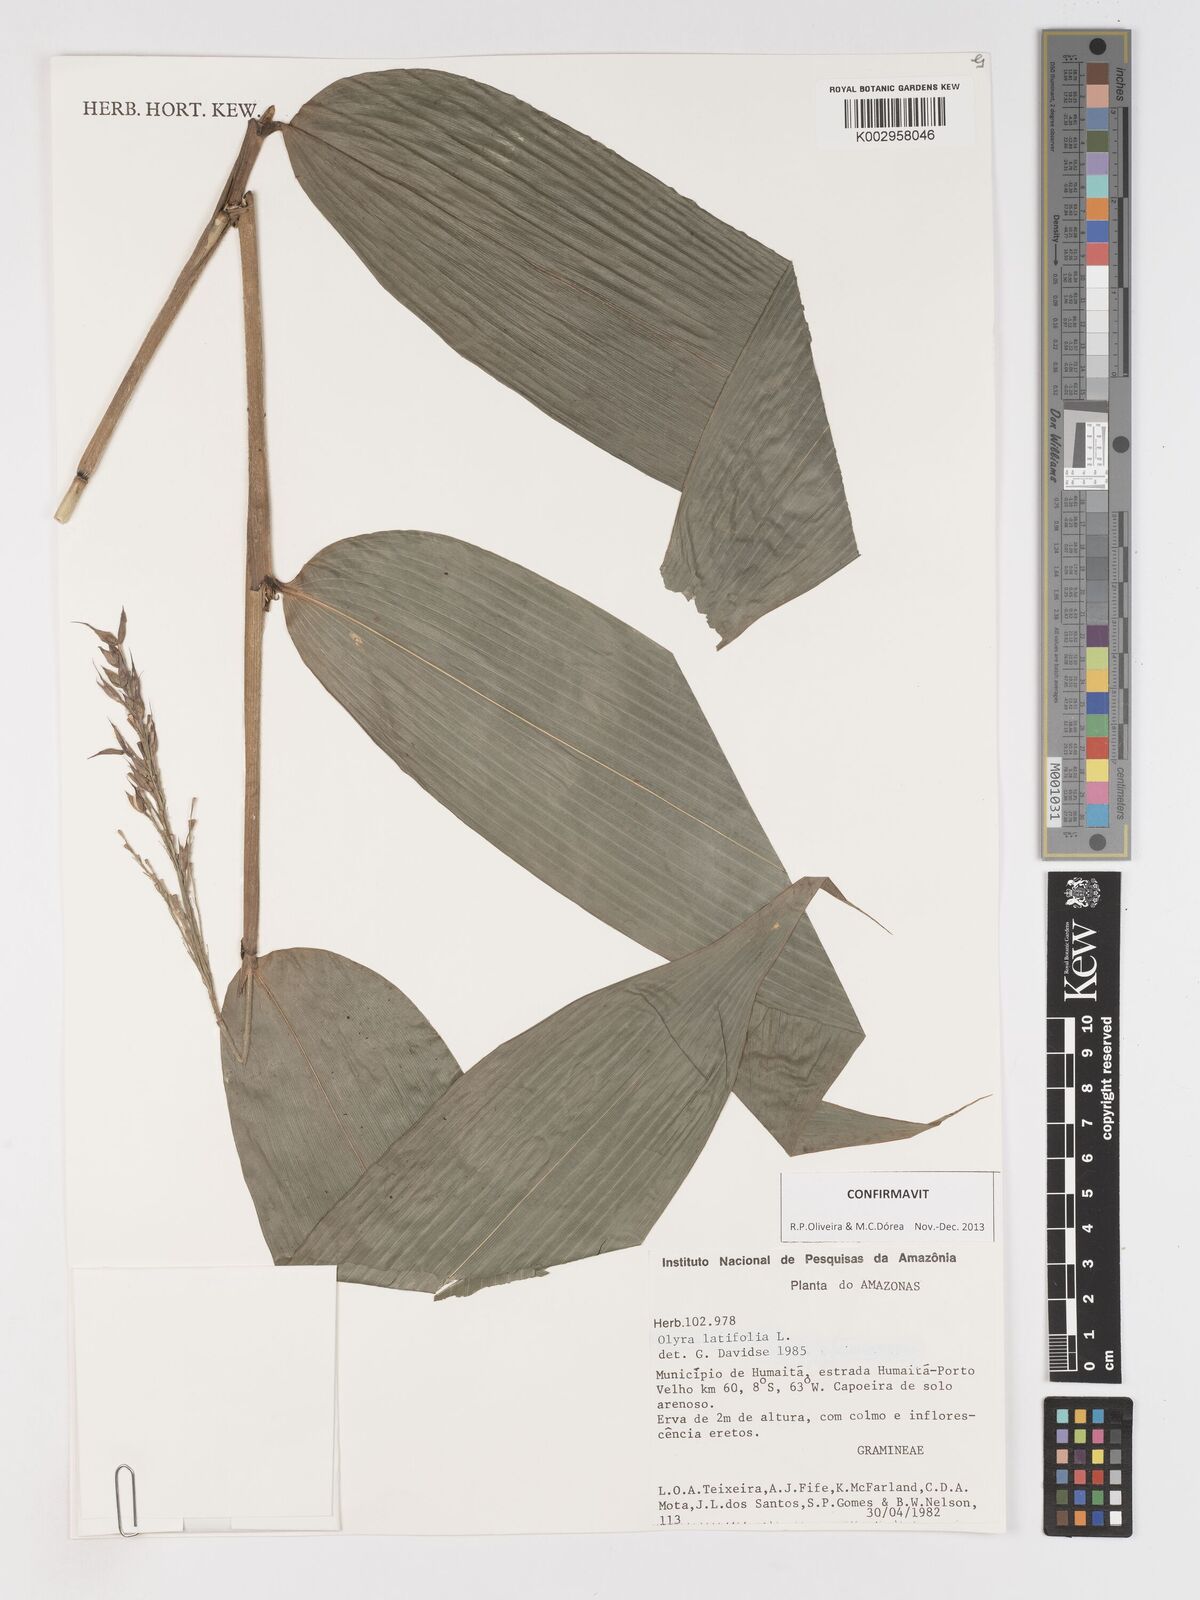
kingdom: Plantae
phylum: Tracheophyta
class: Liliopsida
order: Poales
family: Poaceae
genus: Olyra
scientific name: Olyra latifolia
